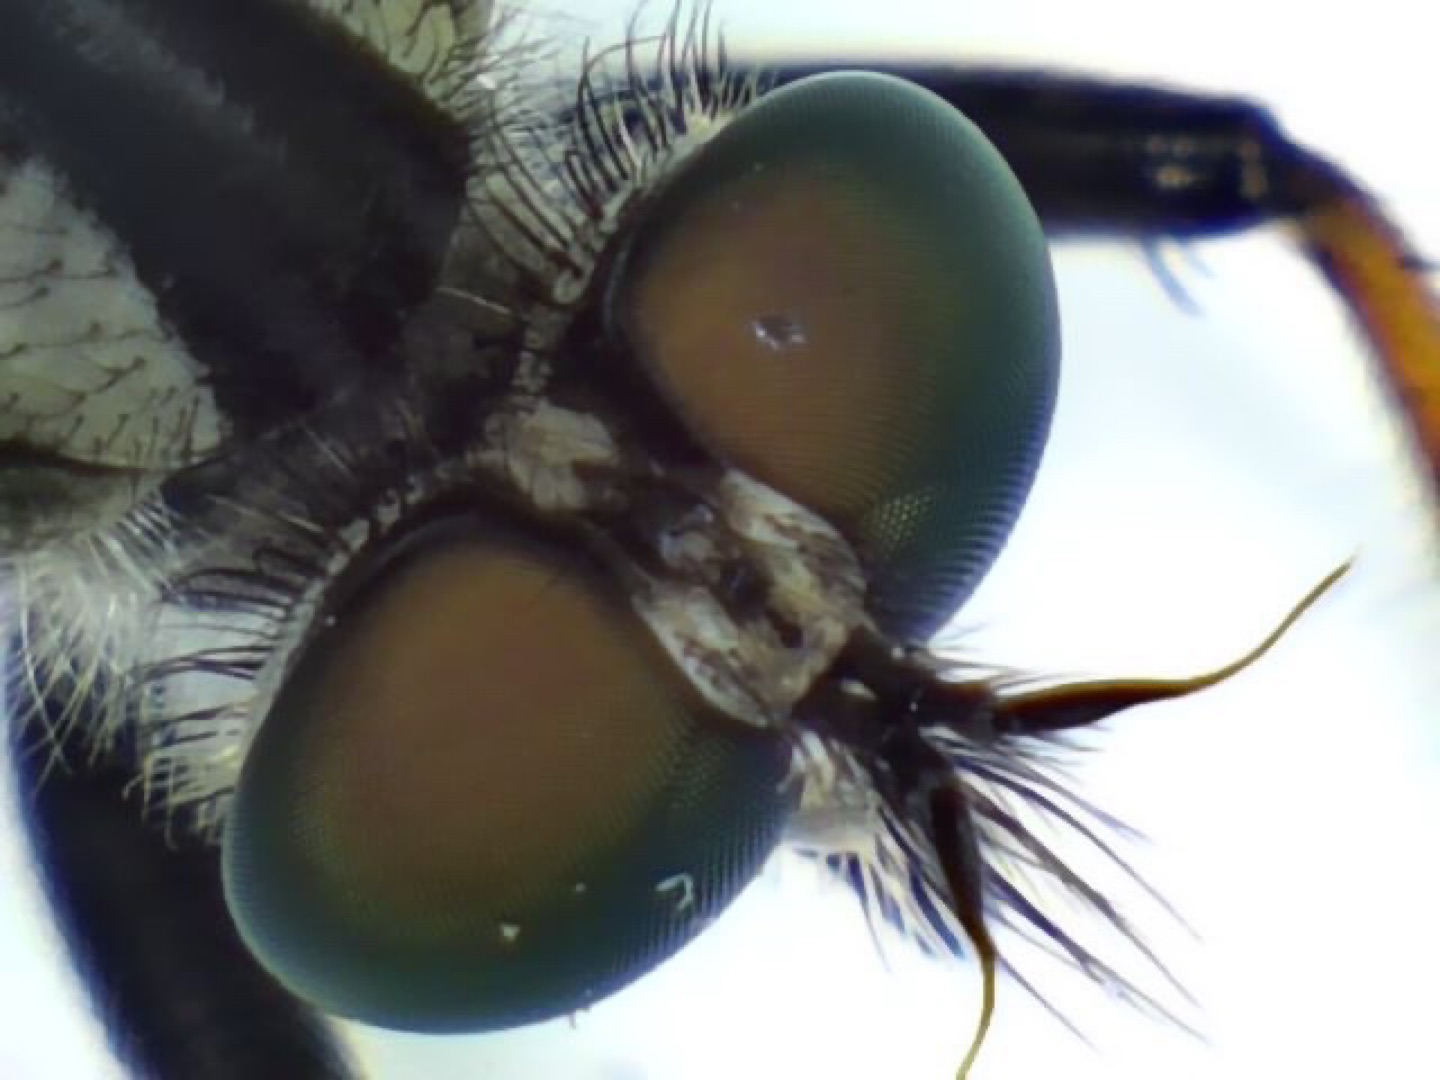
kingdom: Animalia
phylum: Arthropoda
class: Insecta
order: Diptera
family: Asilidae
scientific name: Asilidae
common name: Rovfluer
